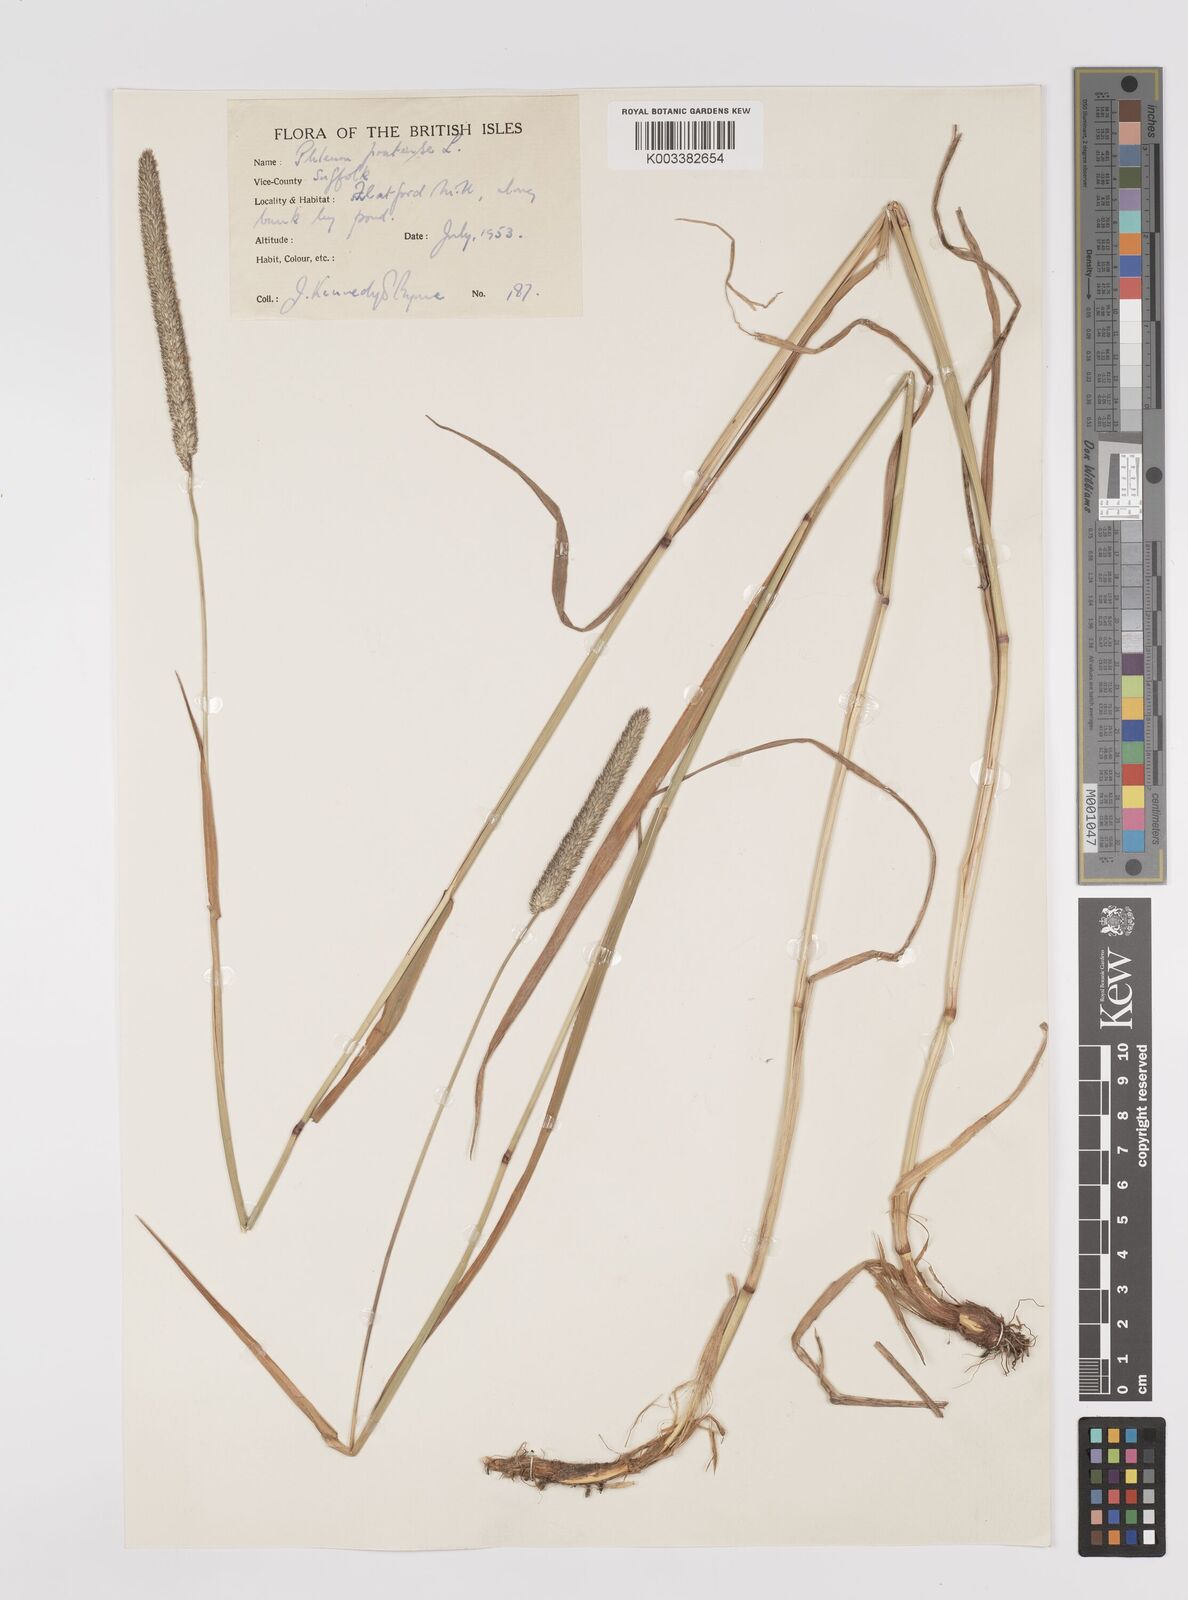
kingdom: Plantae
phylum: Tracheophyta
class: Liliopsida
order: Poales
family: Poaceae
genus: Phleum
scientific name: Phleum pratense
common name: Timothy grass
